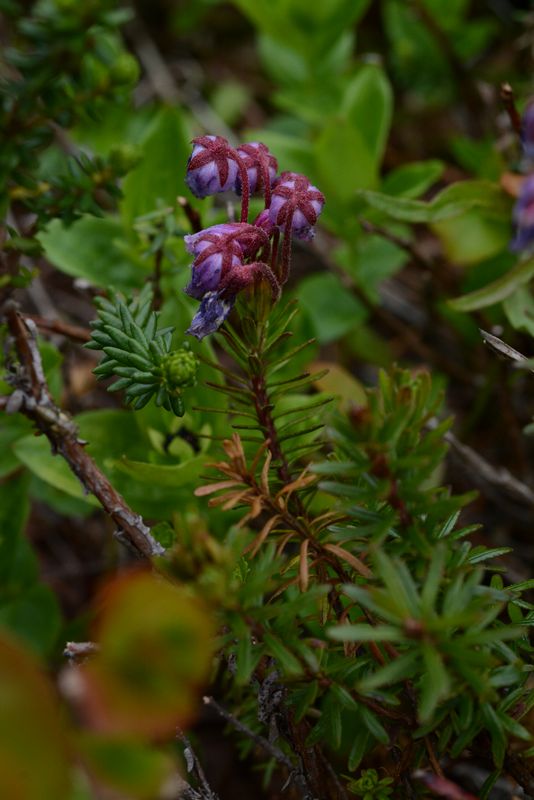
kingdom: Plantae
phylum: Tracheophyta
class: Magnoliopsida
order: Ericales
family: Ericaceae
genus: Phyllodoce
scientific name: Phyllodoce caerulea
